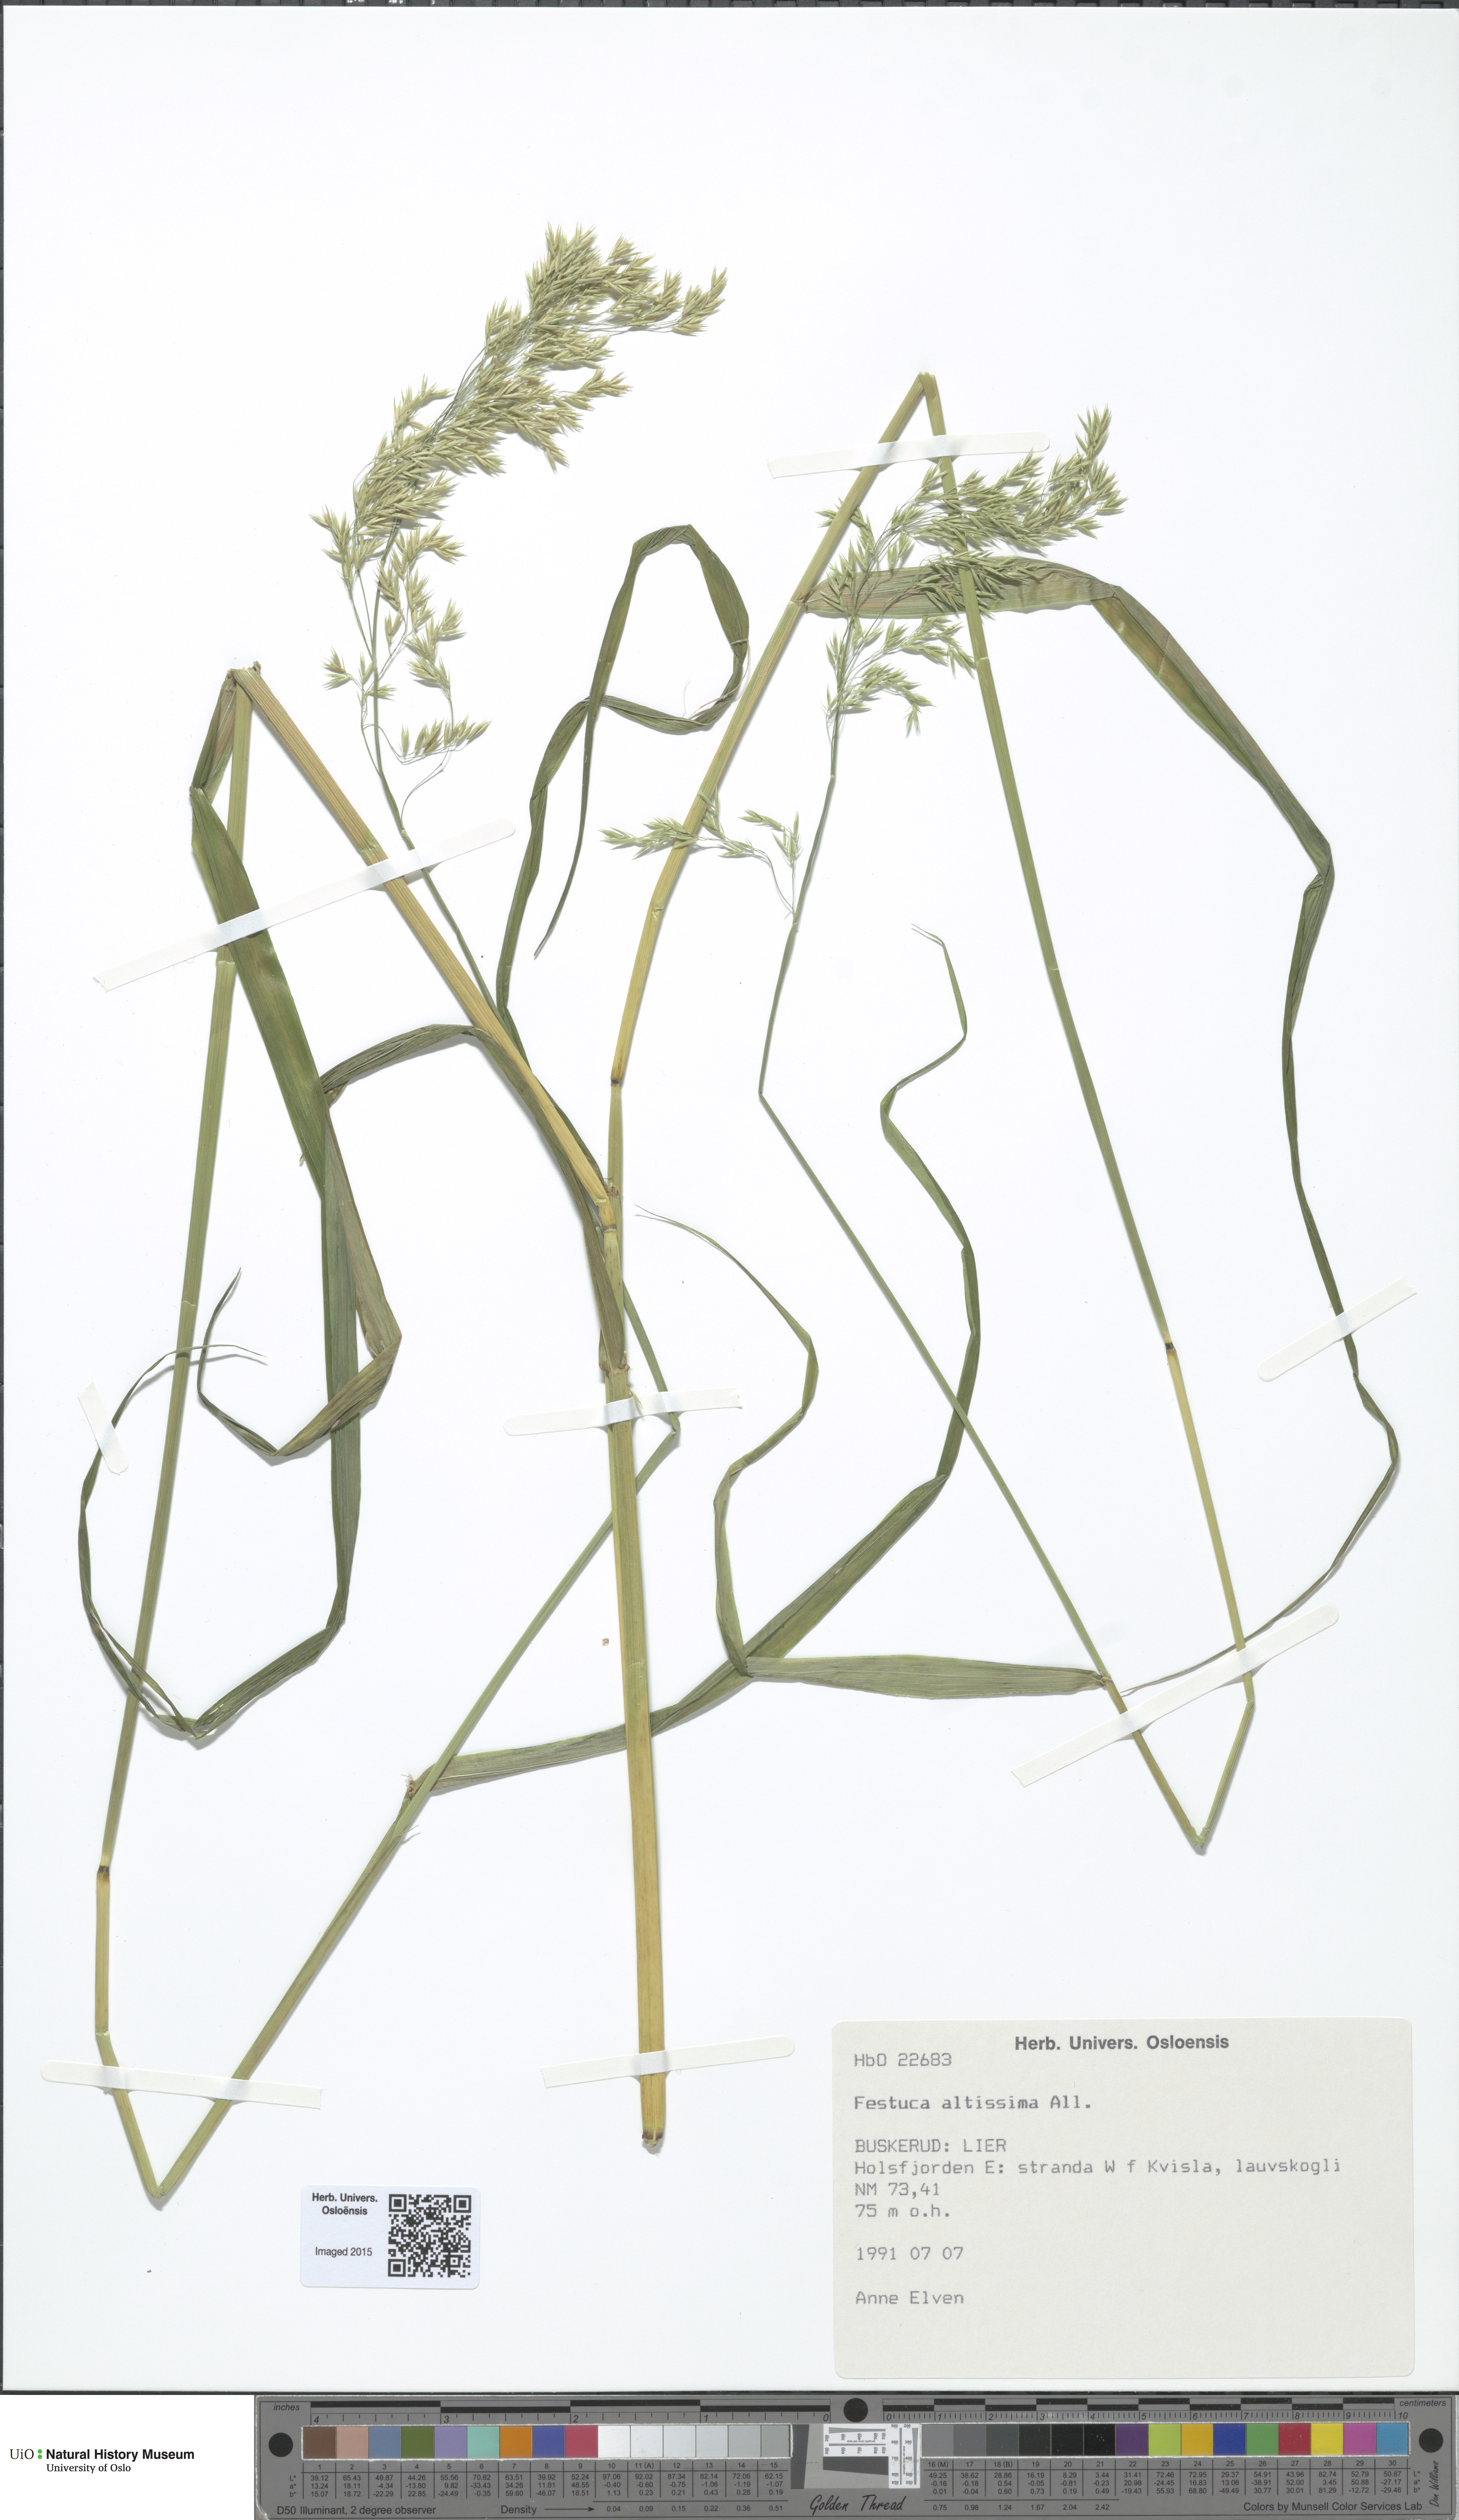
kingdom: Plantae
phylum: Tracheophyta
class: Liliopsida
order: Poales
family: Poaceae
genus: Festuca
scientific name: Festuca altissima
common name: Wood fescue
